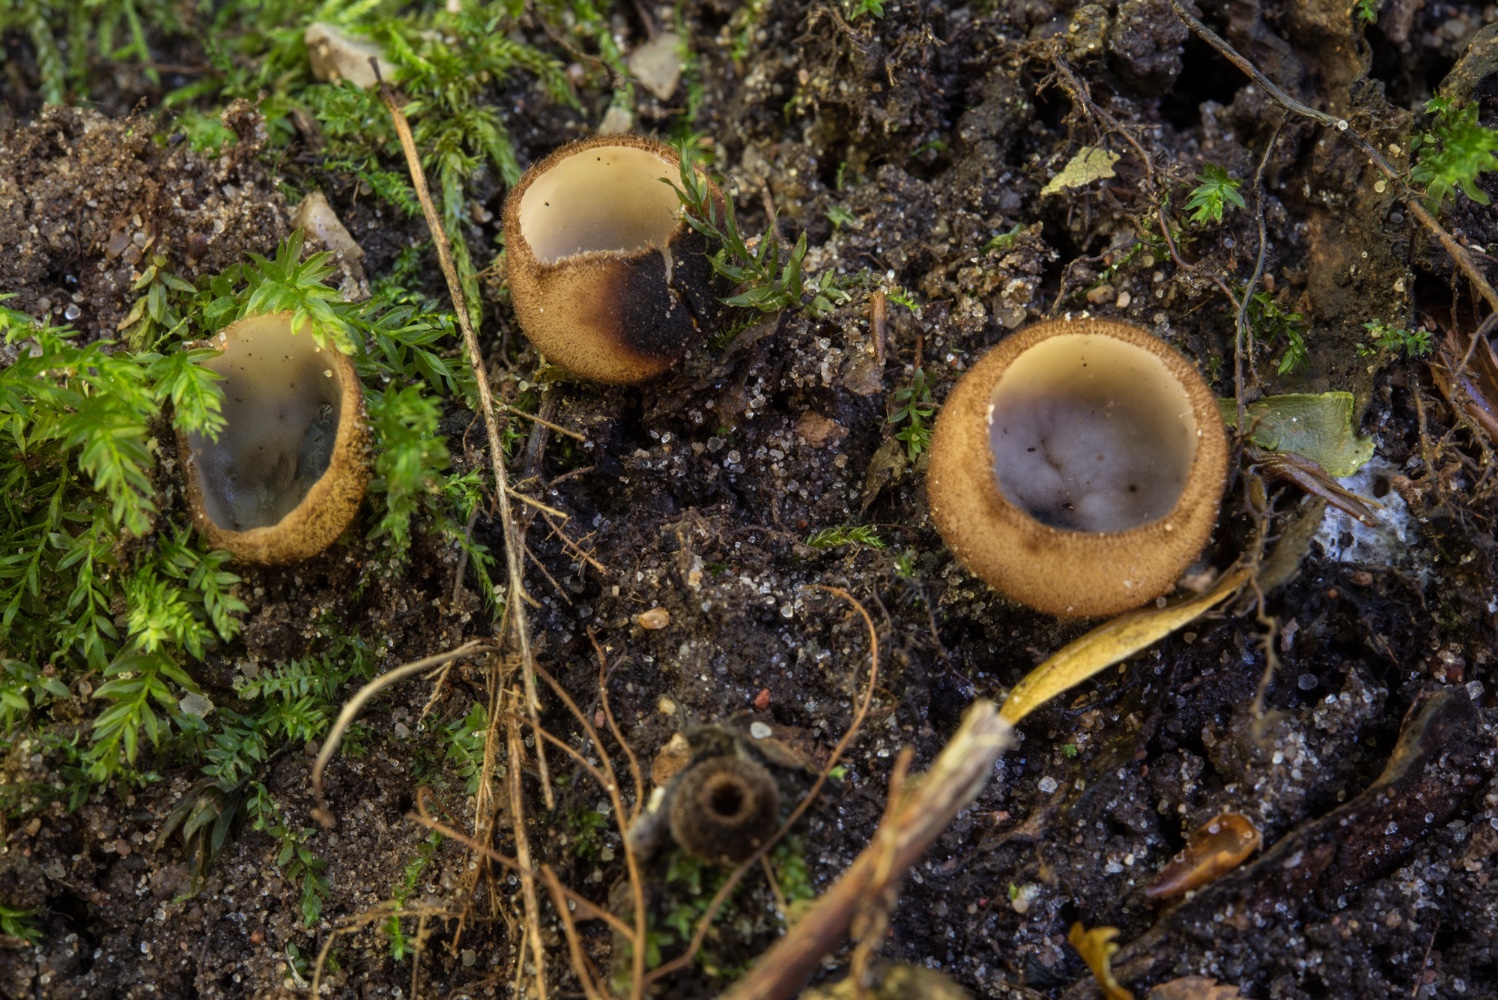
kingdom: Fungi
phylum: Ascomycota
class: Pezizomycetes
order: Pezizales
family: Pyronemataceae
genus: Humaria
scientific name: Humaria hemisphaerica
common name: halvkugleformet børstebæger
